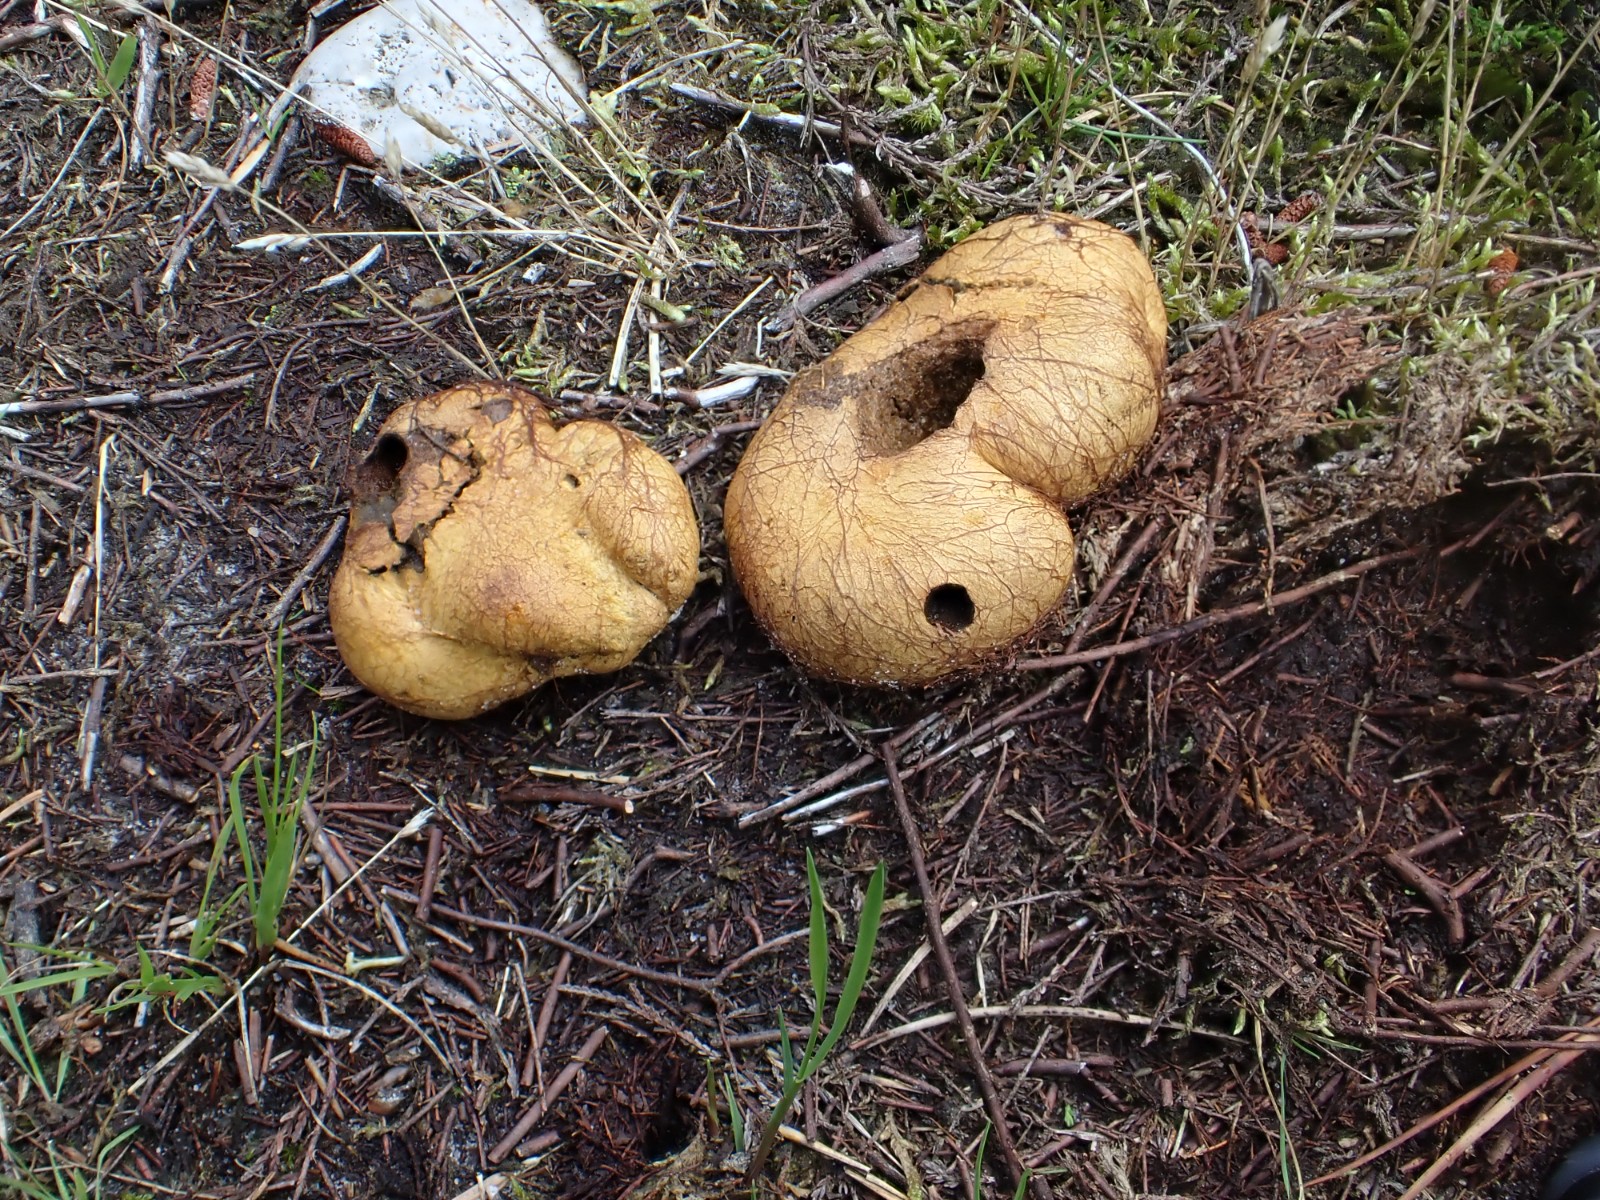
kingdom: Fungi
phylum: Basidiomycota
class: Agaricomycetes
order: Boletales
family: Rhizopogonaceae
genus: Rhizopogon
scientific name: Rhizopogon obtextus
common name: gul skægtrøffel
